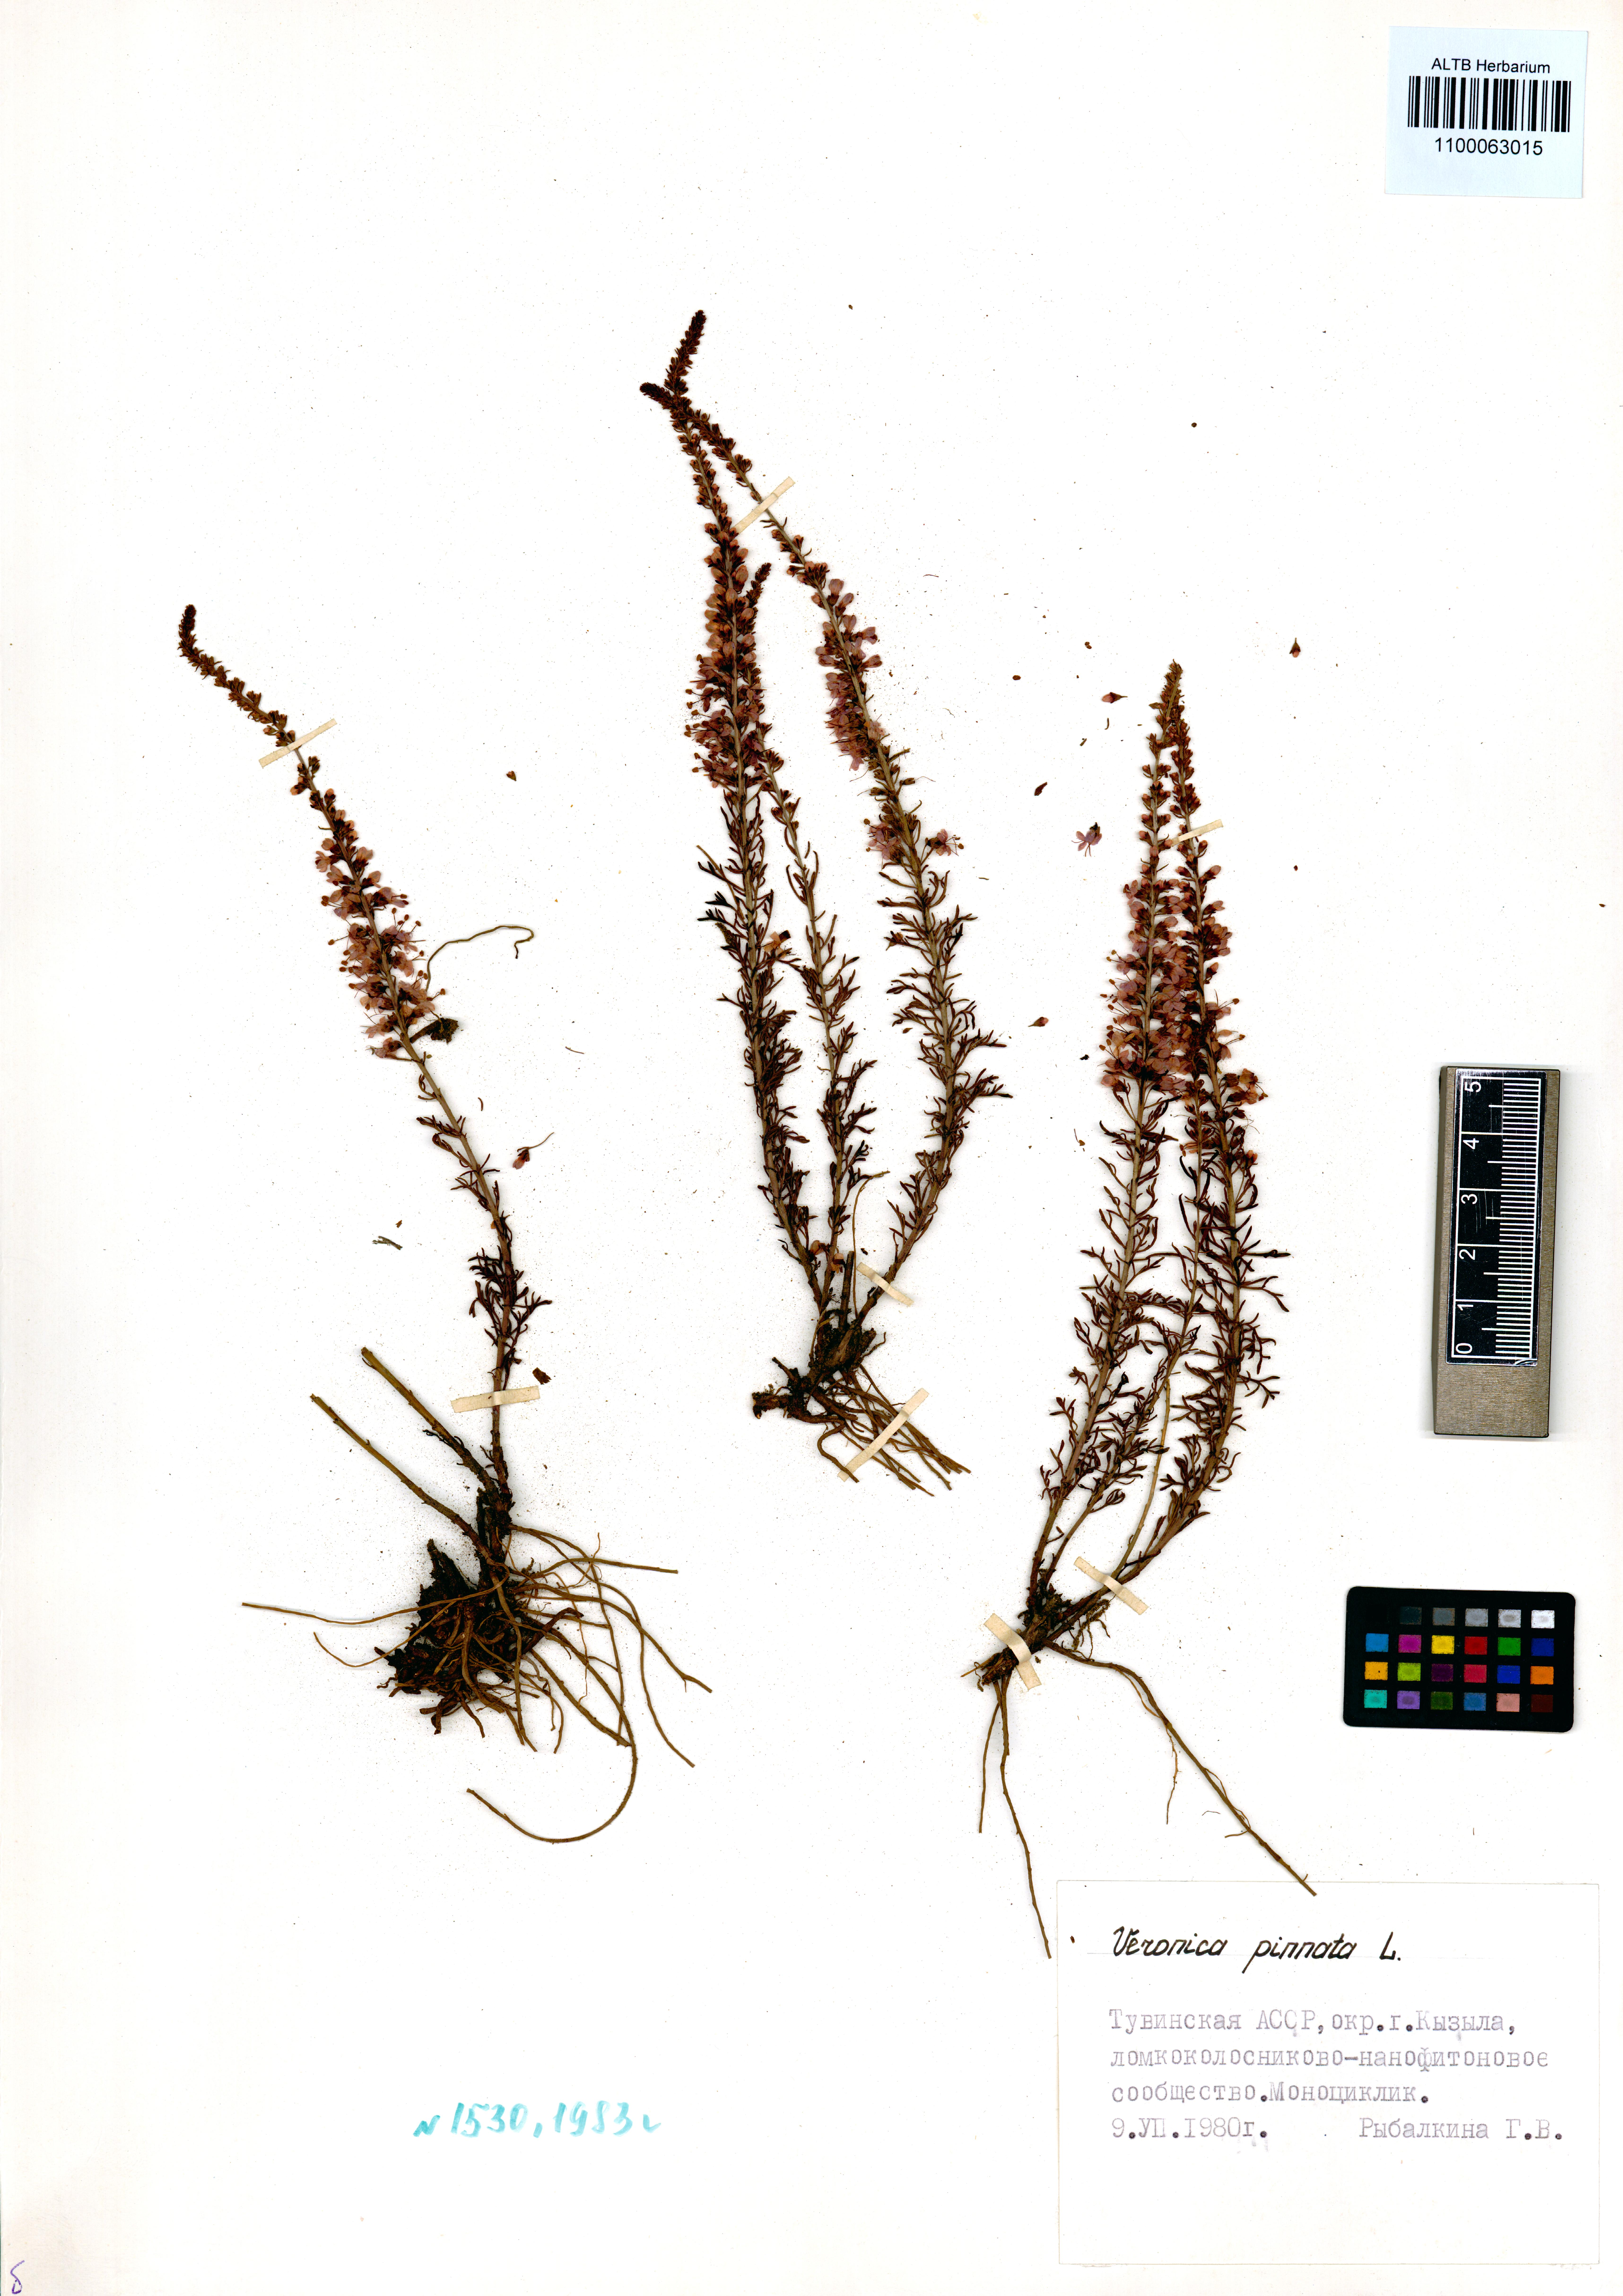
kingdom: Plantae
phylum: Tracheophyta
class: Magnoliopsida
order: Lamiales
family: Plantaginaceae
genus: Veronica
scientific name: Veronica pinnata
